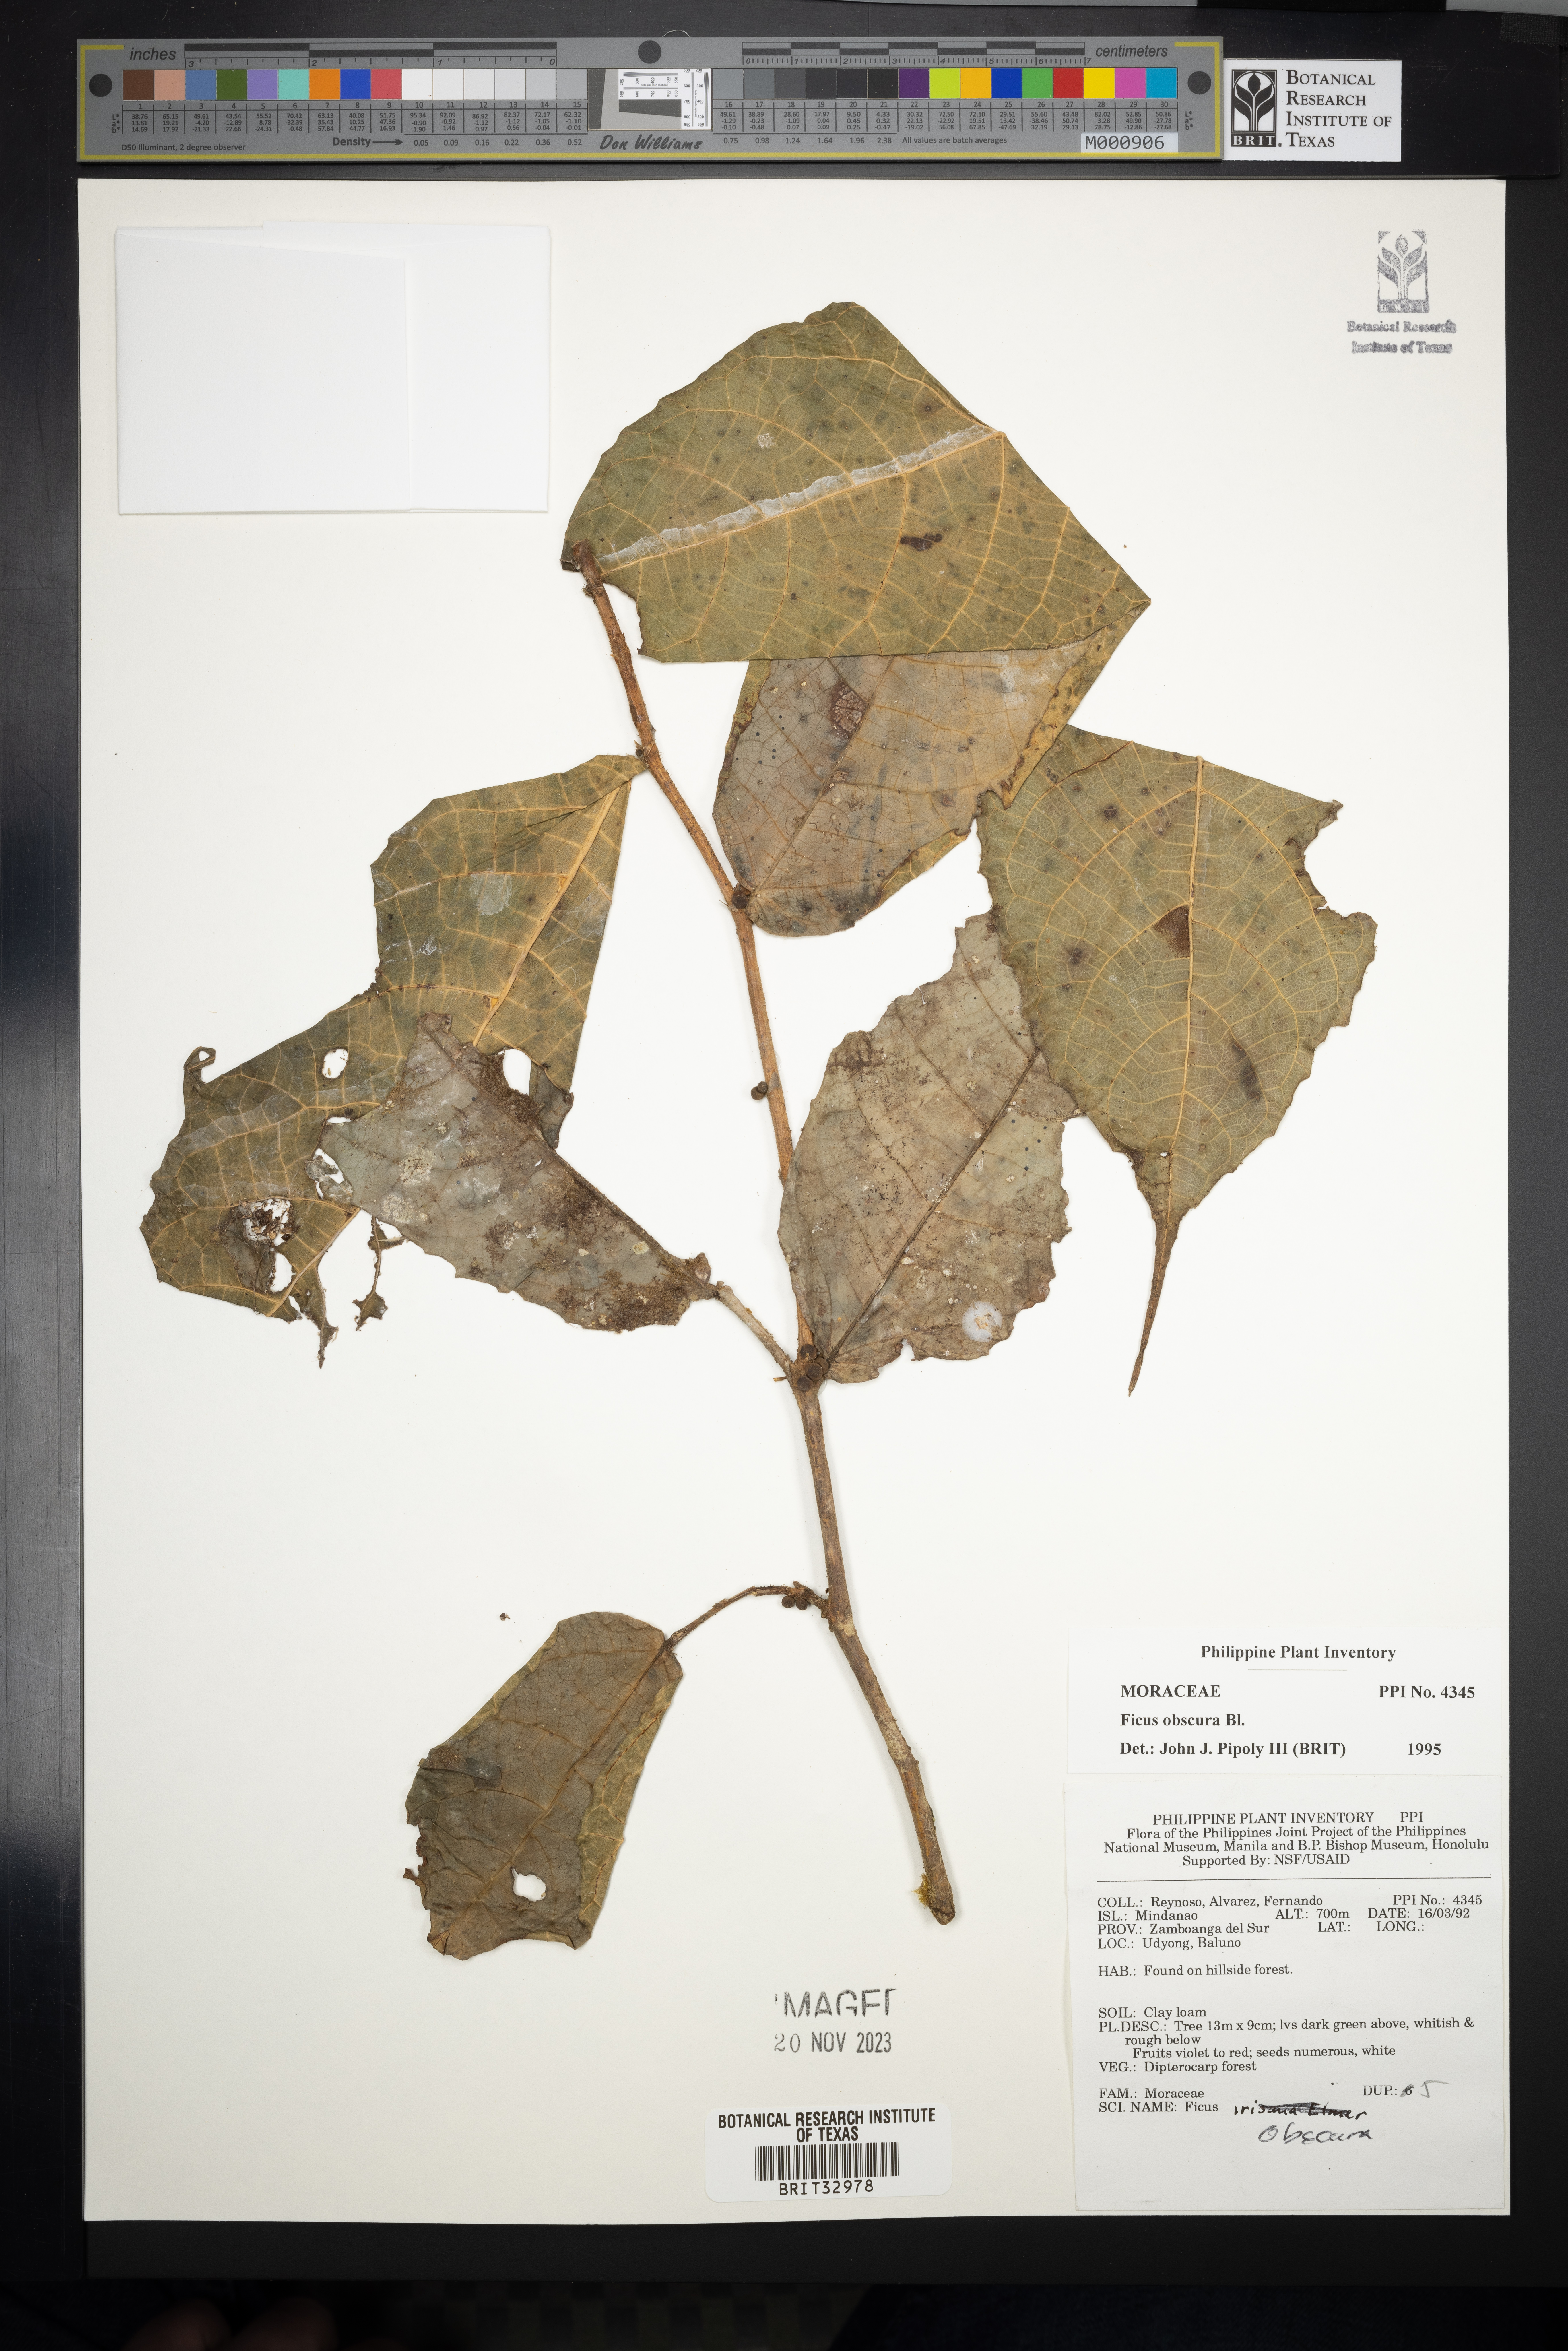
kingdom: Plantae
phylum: Tracheophyta
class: Magnoliopsida
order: Rosales
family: Moraceae
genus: Ficus
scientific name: Ficus obscura
